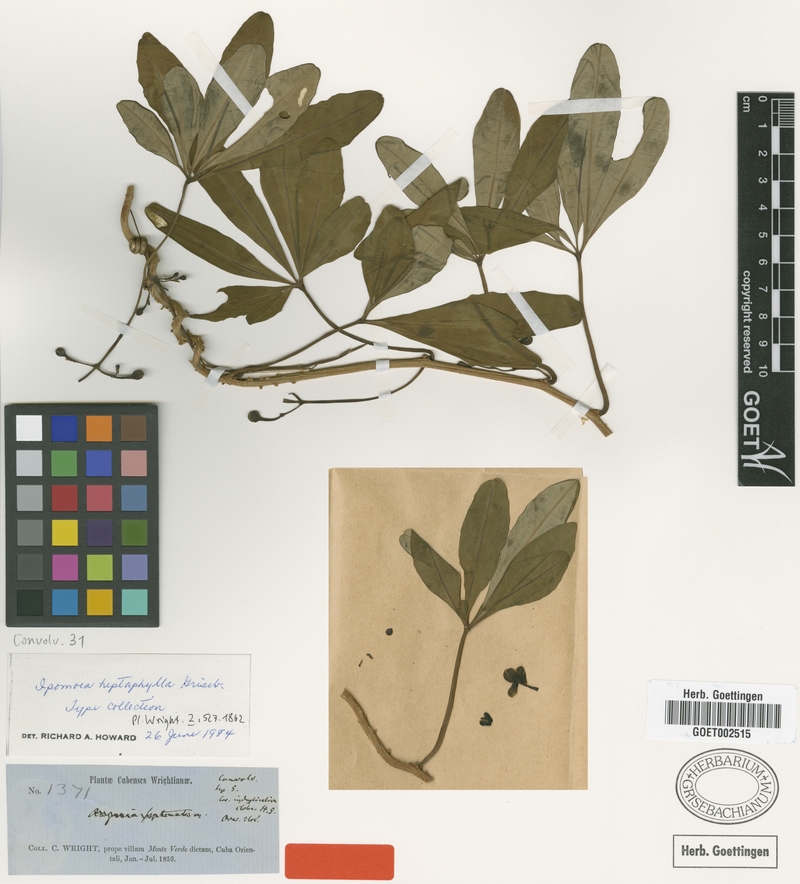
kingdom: Plantae
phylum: Tracheophyta
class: Magnoliopsida
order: Solanales
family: Convolvulaceae
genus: Ipomoea
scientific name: Ipomoea carolina
